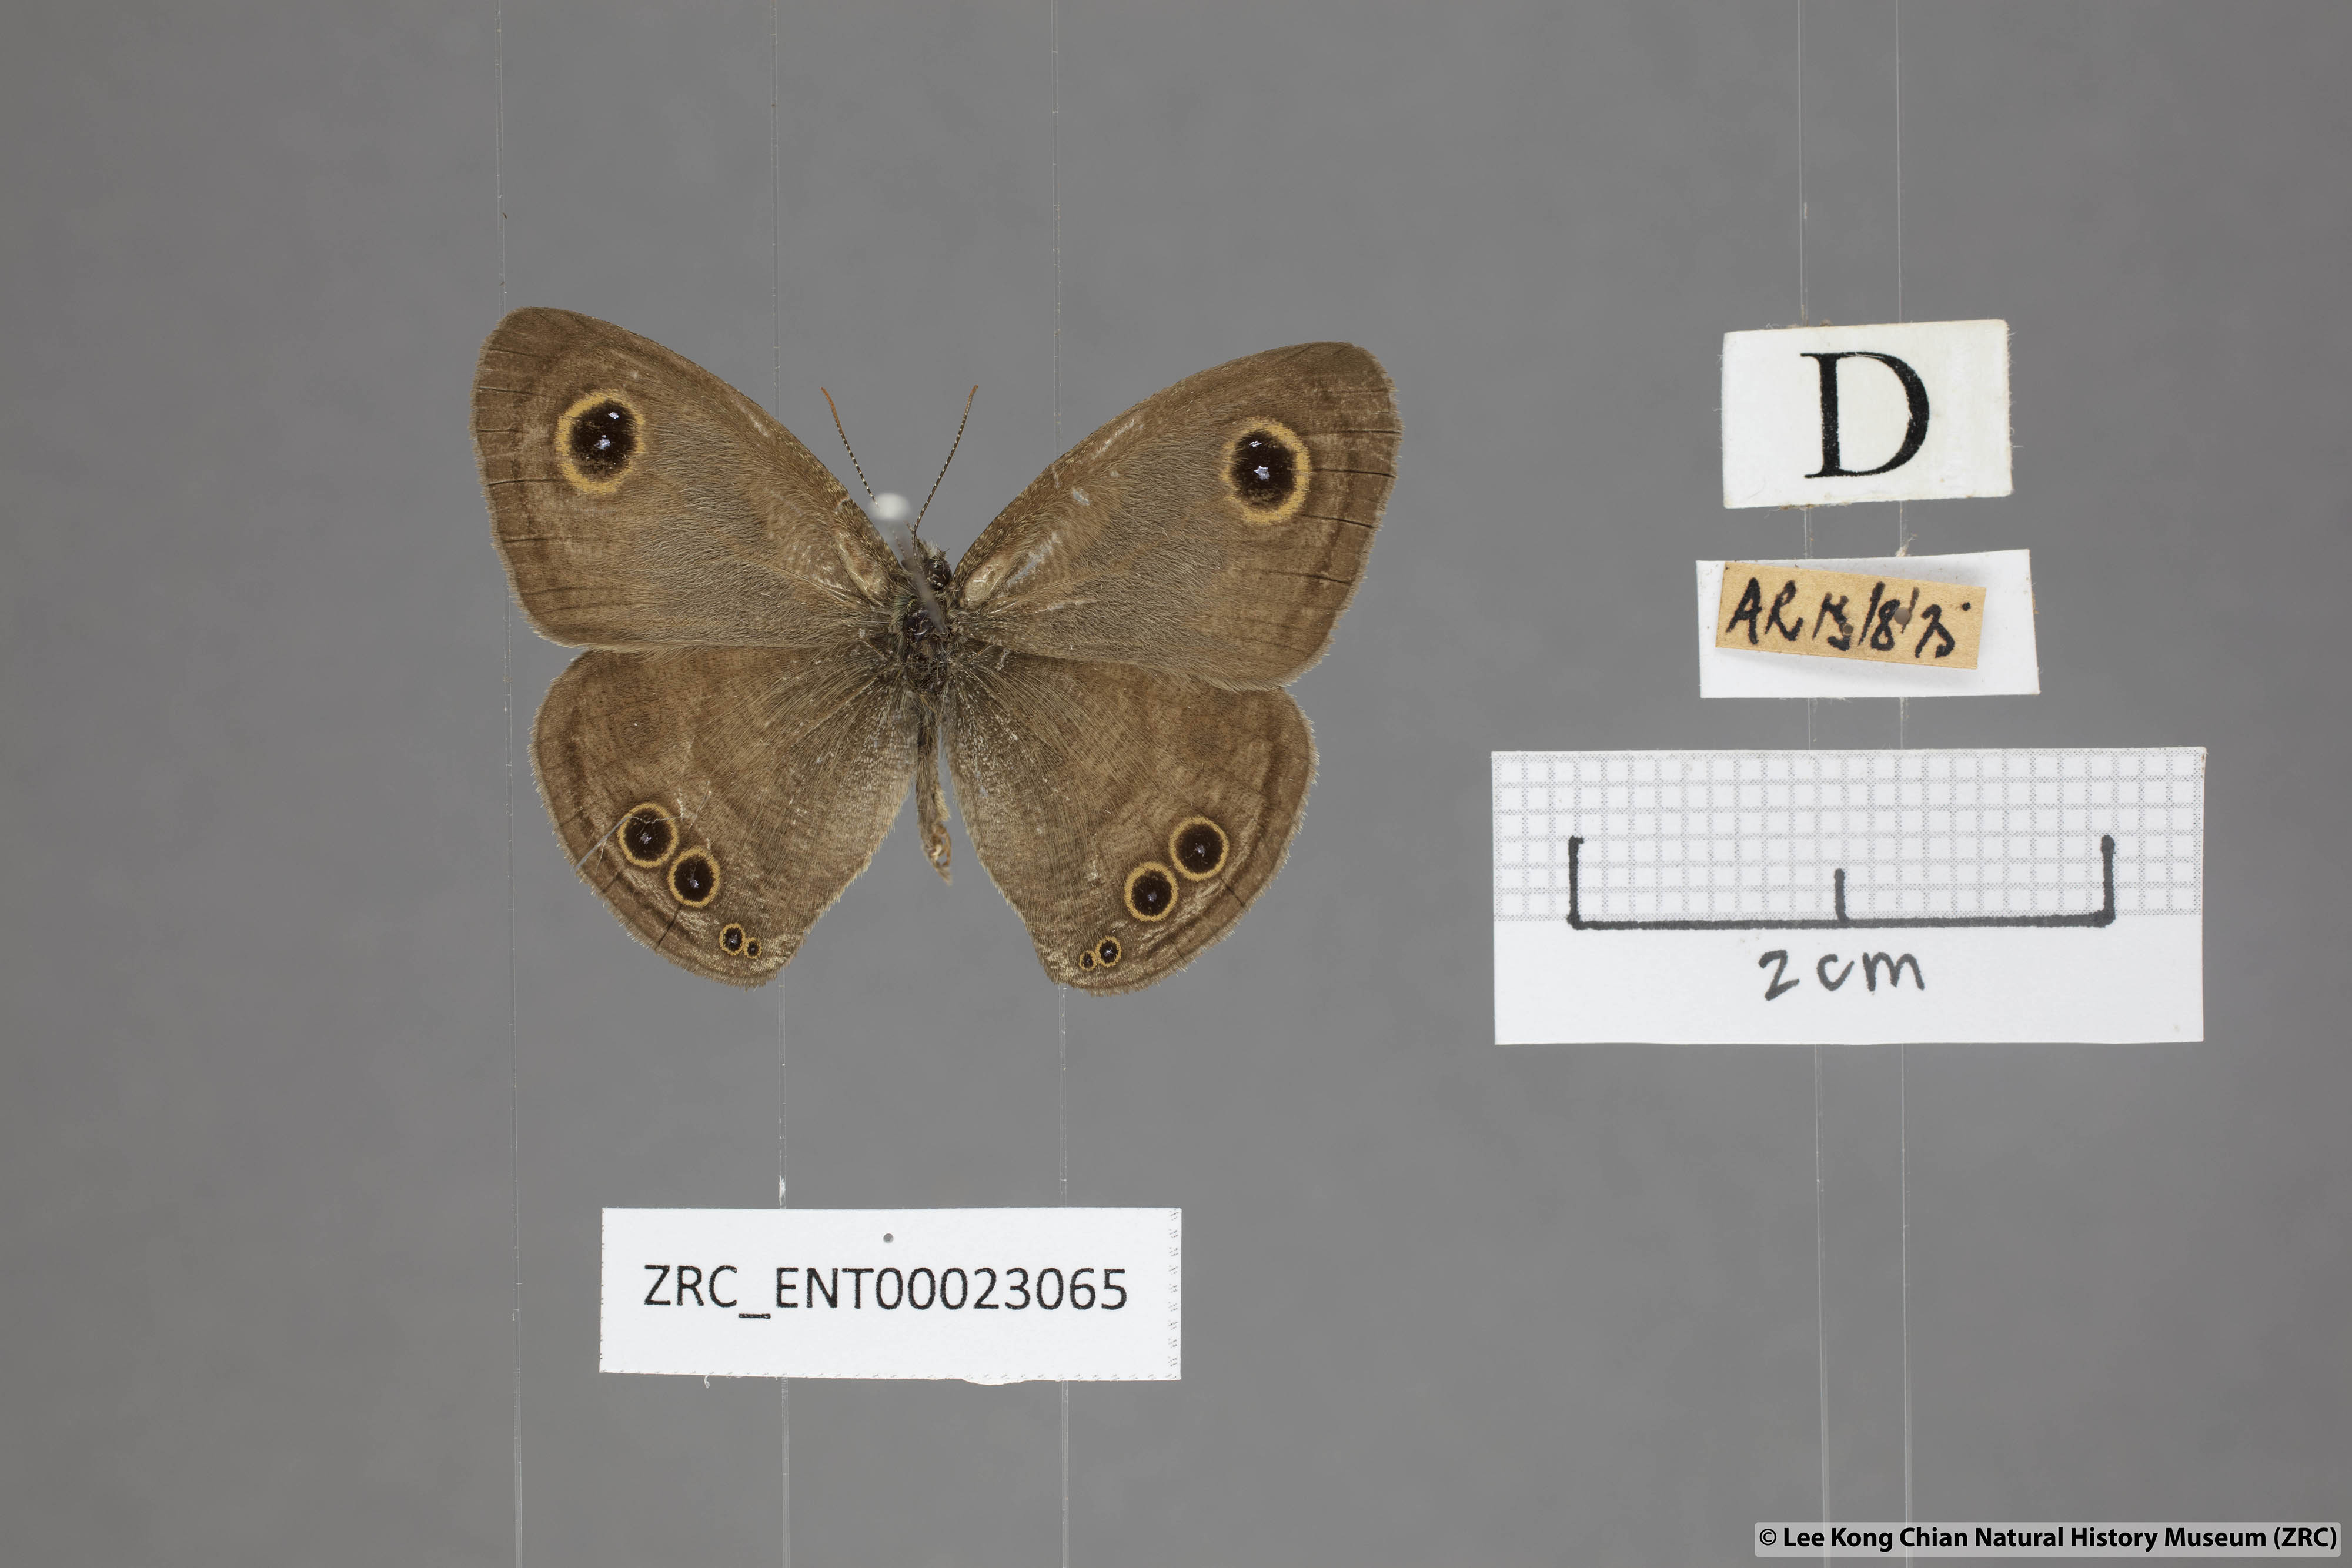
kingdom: Animalia
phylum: Arthropoda
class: Insecta
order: Lepidoptera
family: Nymphalidae
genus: Ypthima
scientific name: Ypthima baldus
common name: Common five-ring
